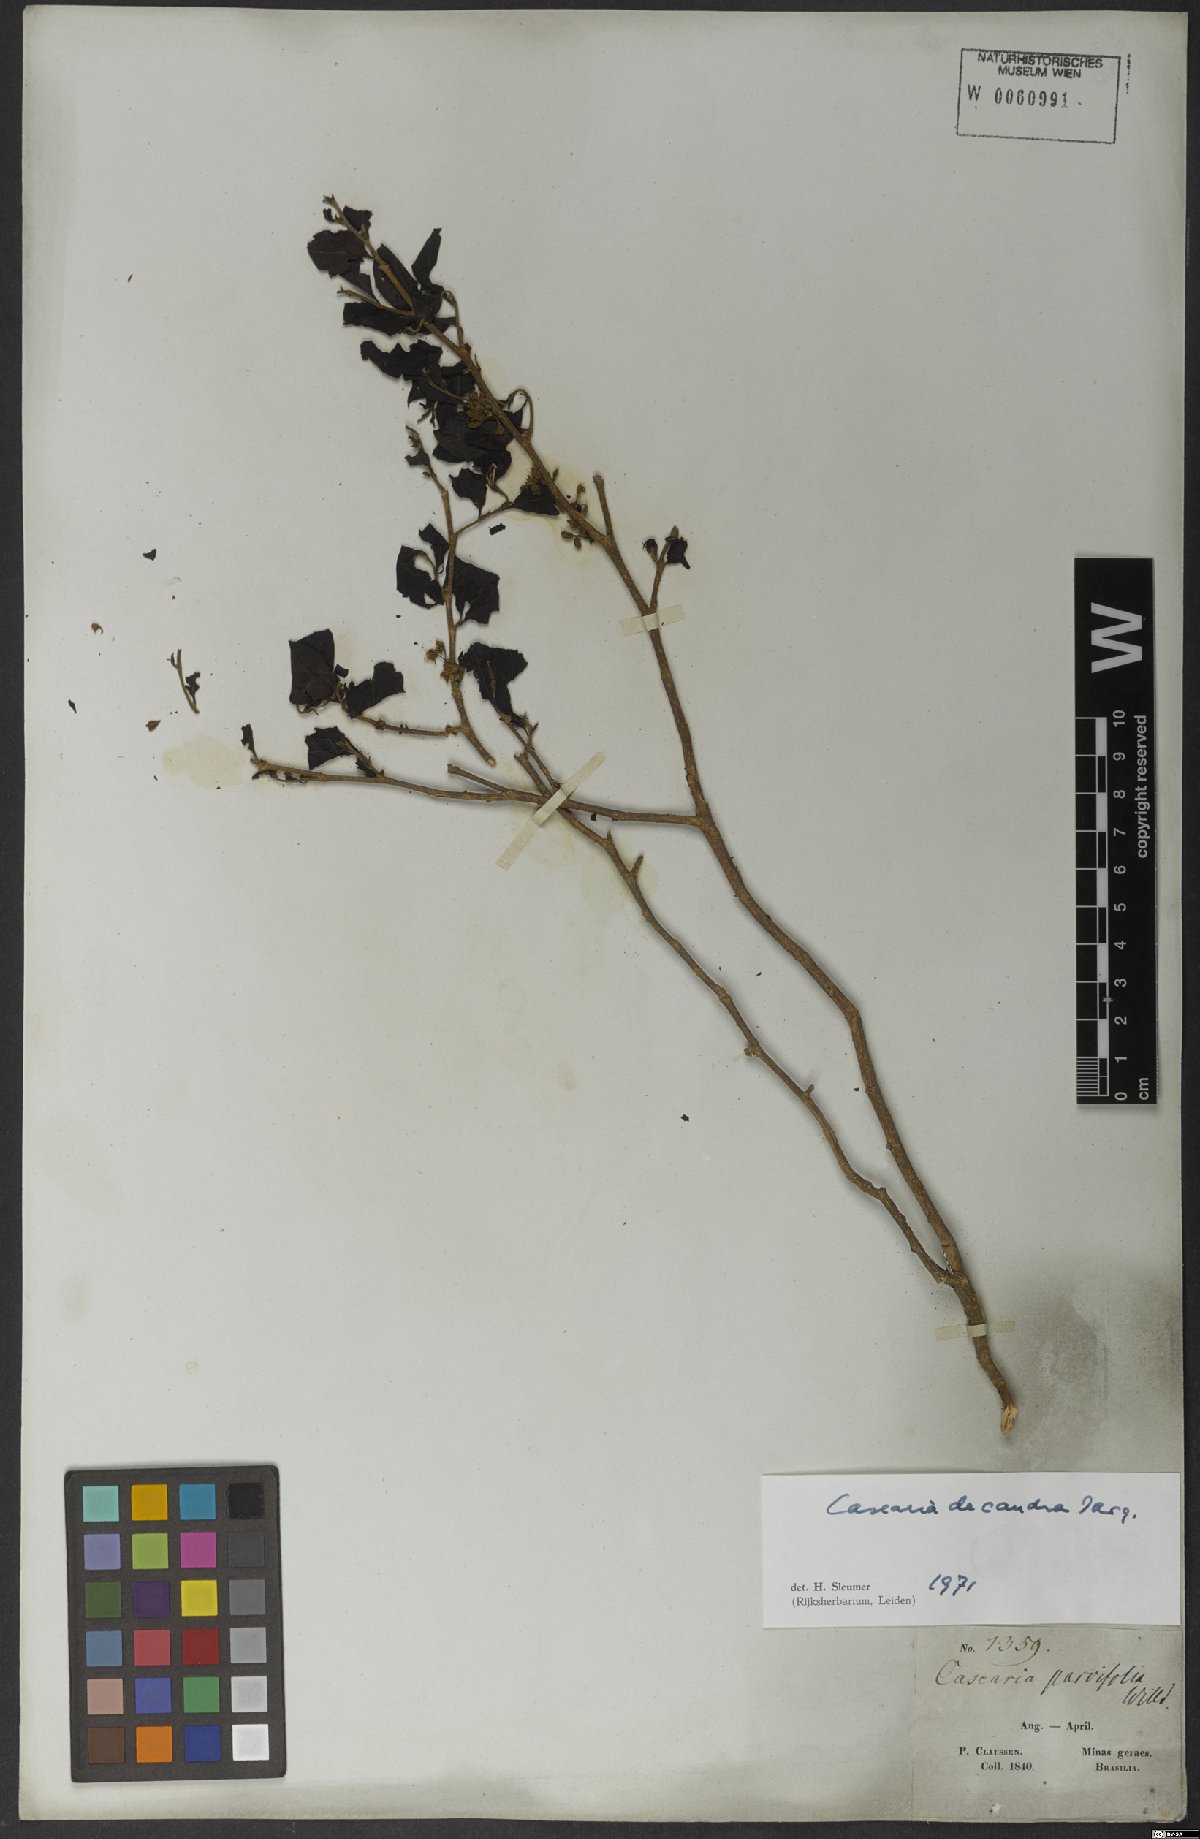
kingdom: Plantae
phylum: Tracheophyta
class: Magnoliopsida
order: Malpighiales
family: Salicaceae
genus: Casearia
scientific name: Casearia decandra
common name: Crack open
